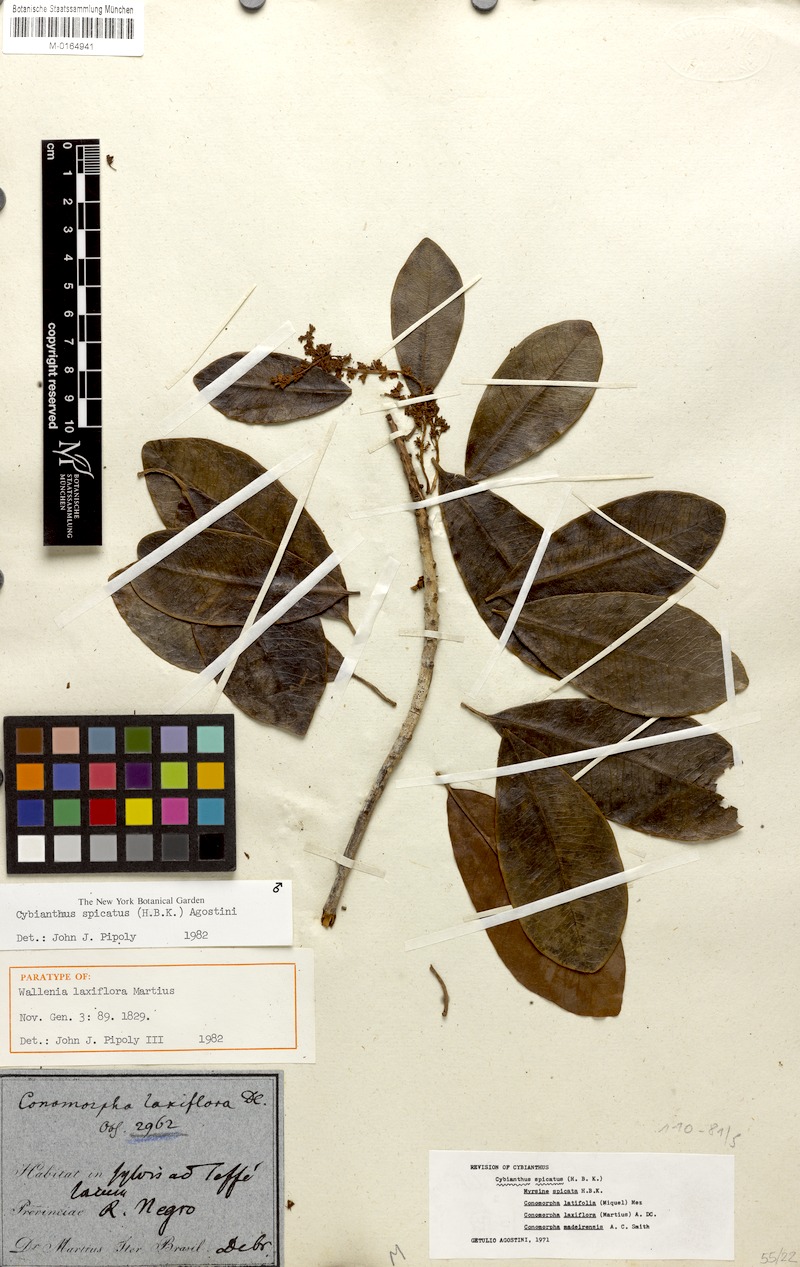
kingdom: Plantae
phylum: Tracheophyta
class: Magnoliopsida
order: Ericales
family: Primulaceae
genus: Cybianthus
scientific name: Cybianthus spicatus
